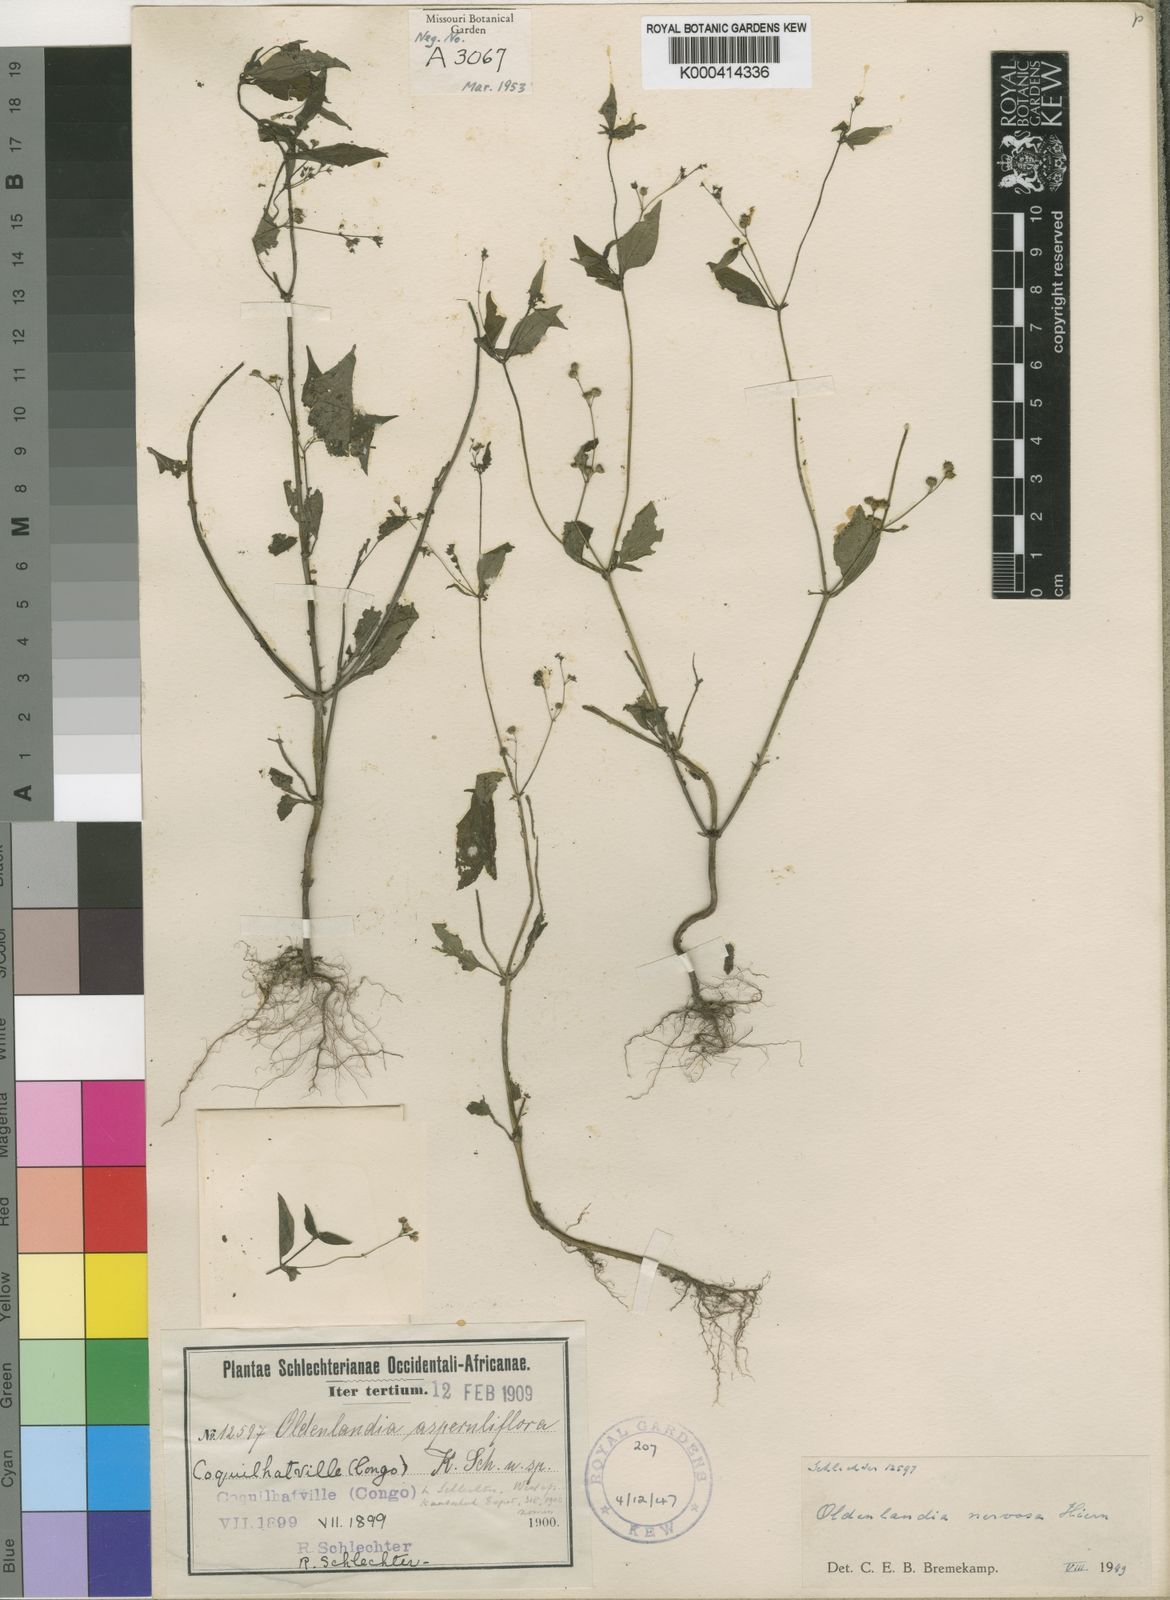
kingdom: Plantae
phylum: Tracheophyta
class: Magnoliopsida
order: Gentianales
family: Rubiaceae
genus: Oldenlandia
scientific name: Oldenlandia nervosa
